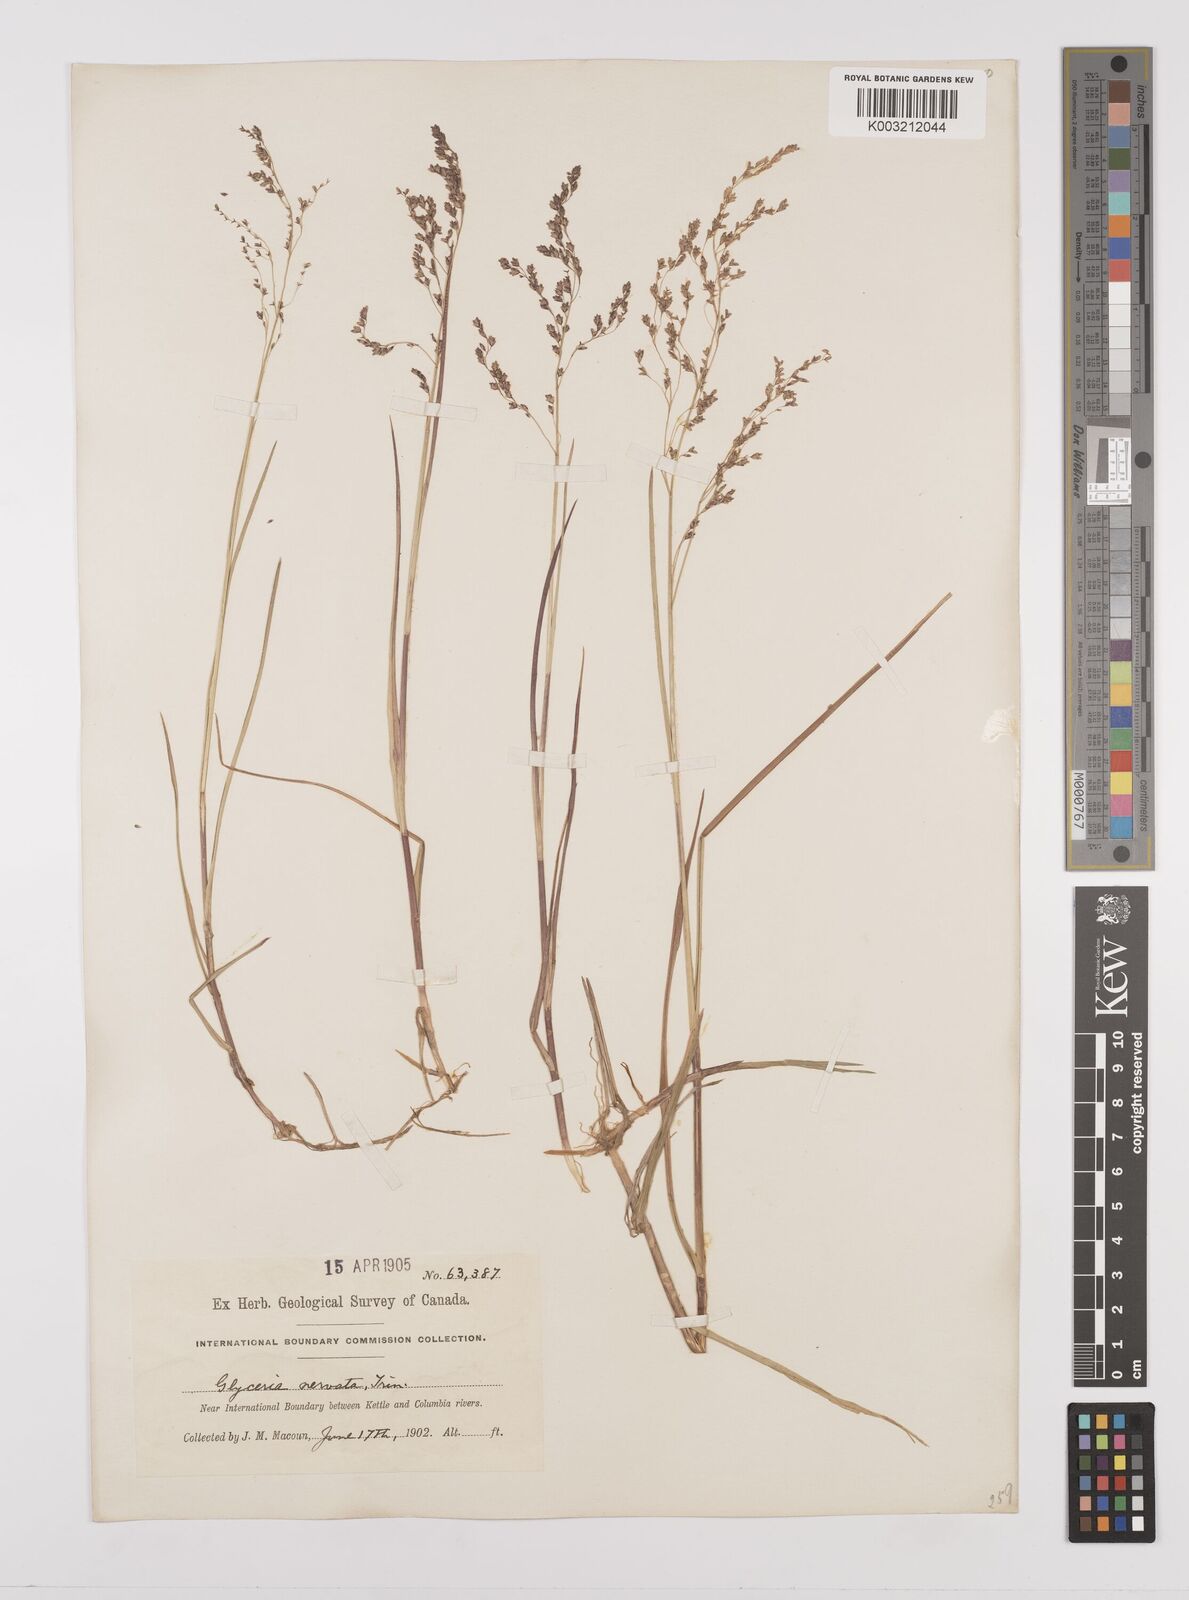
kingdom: Plantae
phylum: Tracheophyta
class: Liliopsida
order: Poales
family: Poaceae
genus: Glyceria
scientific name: Glyceria striata
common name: Fowl manna grass
